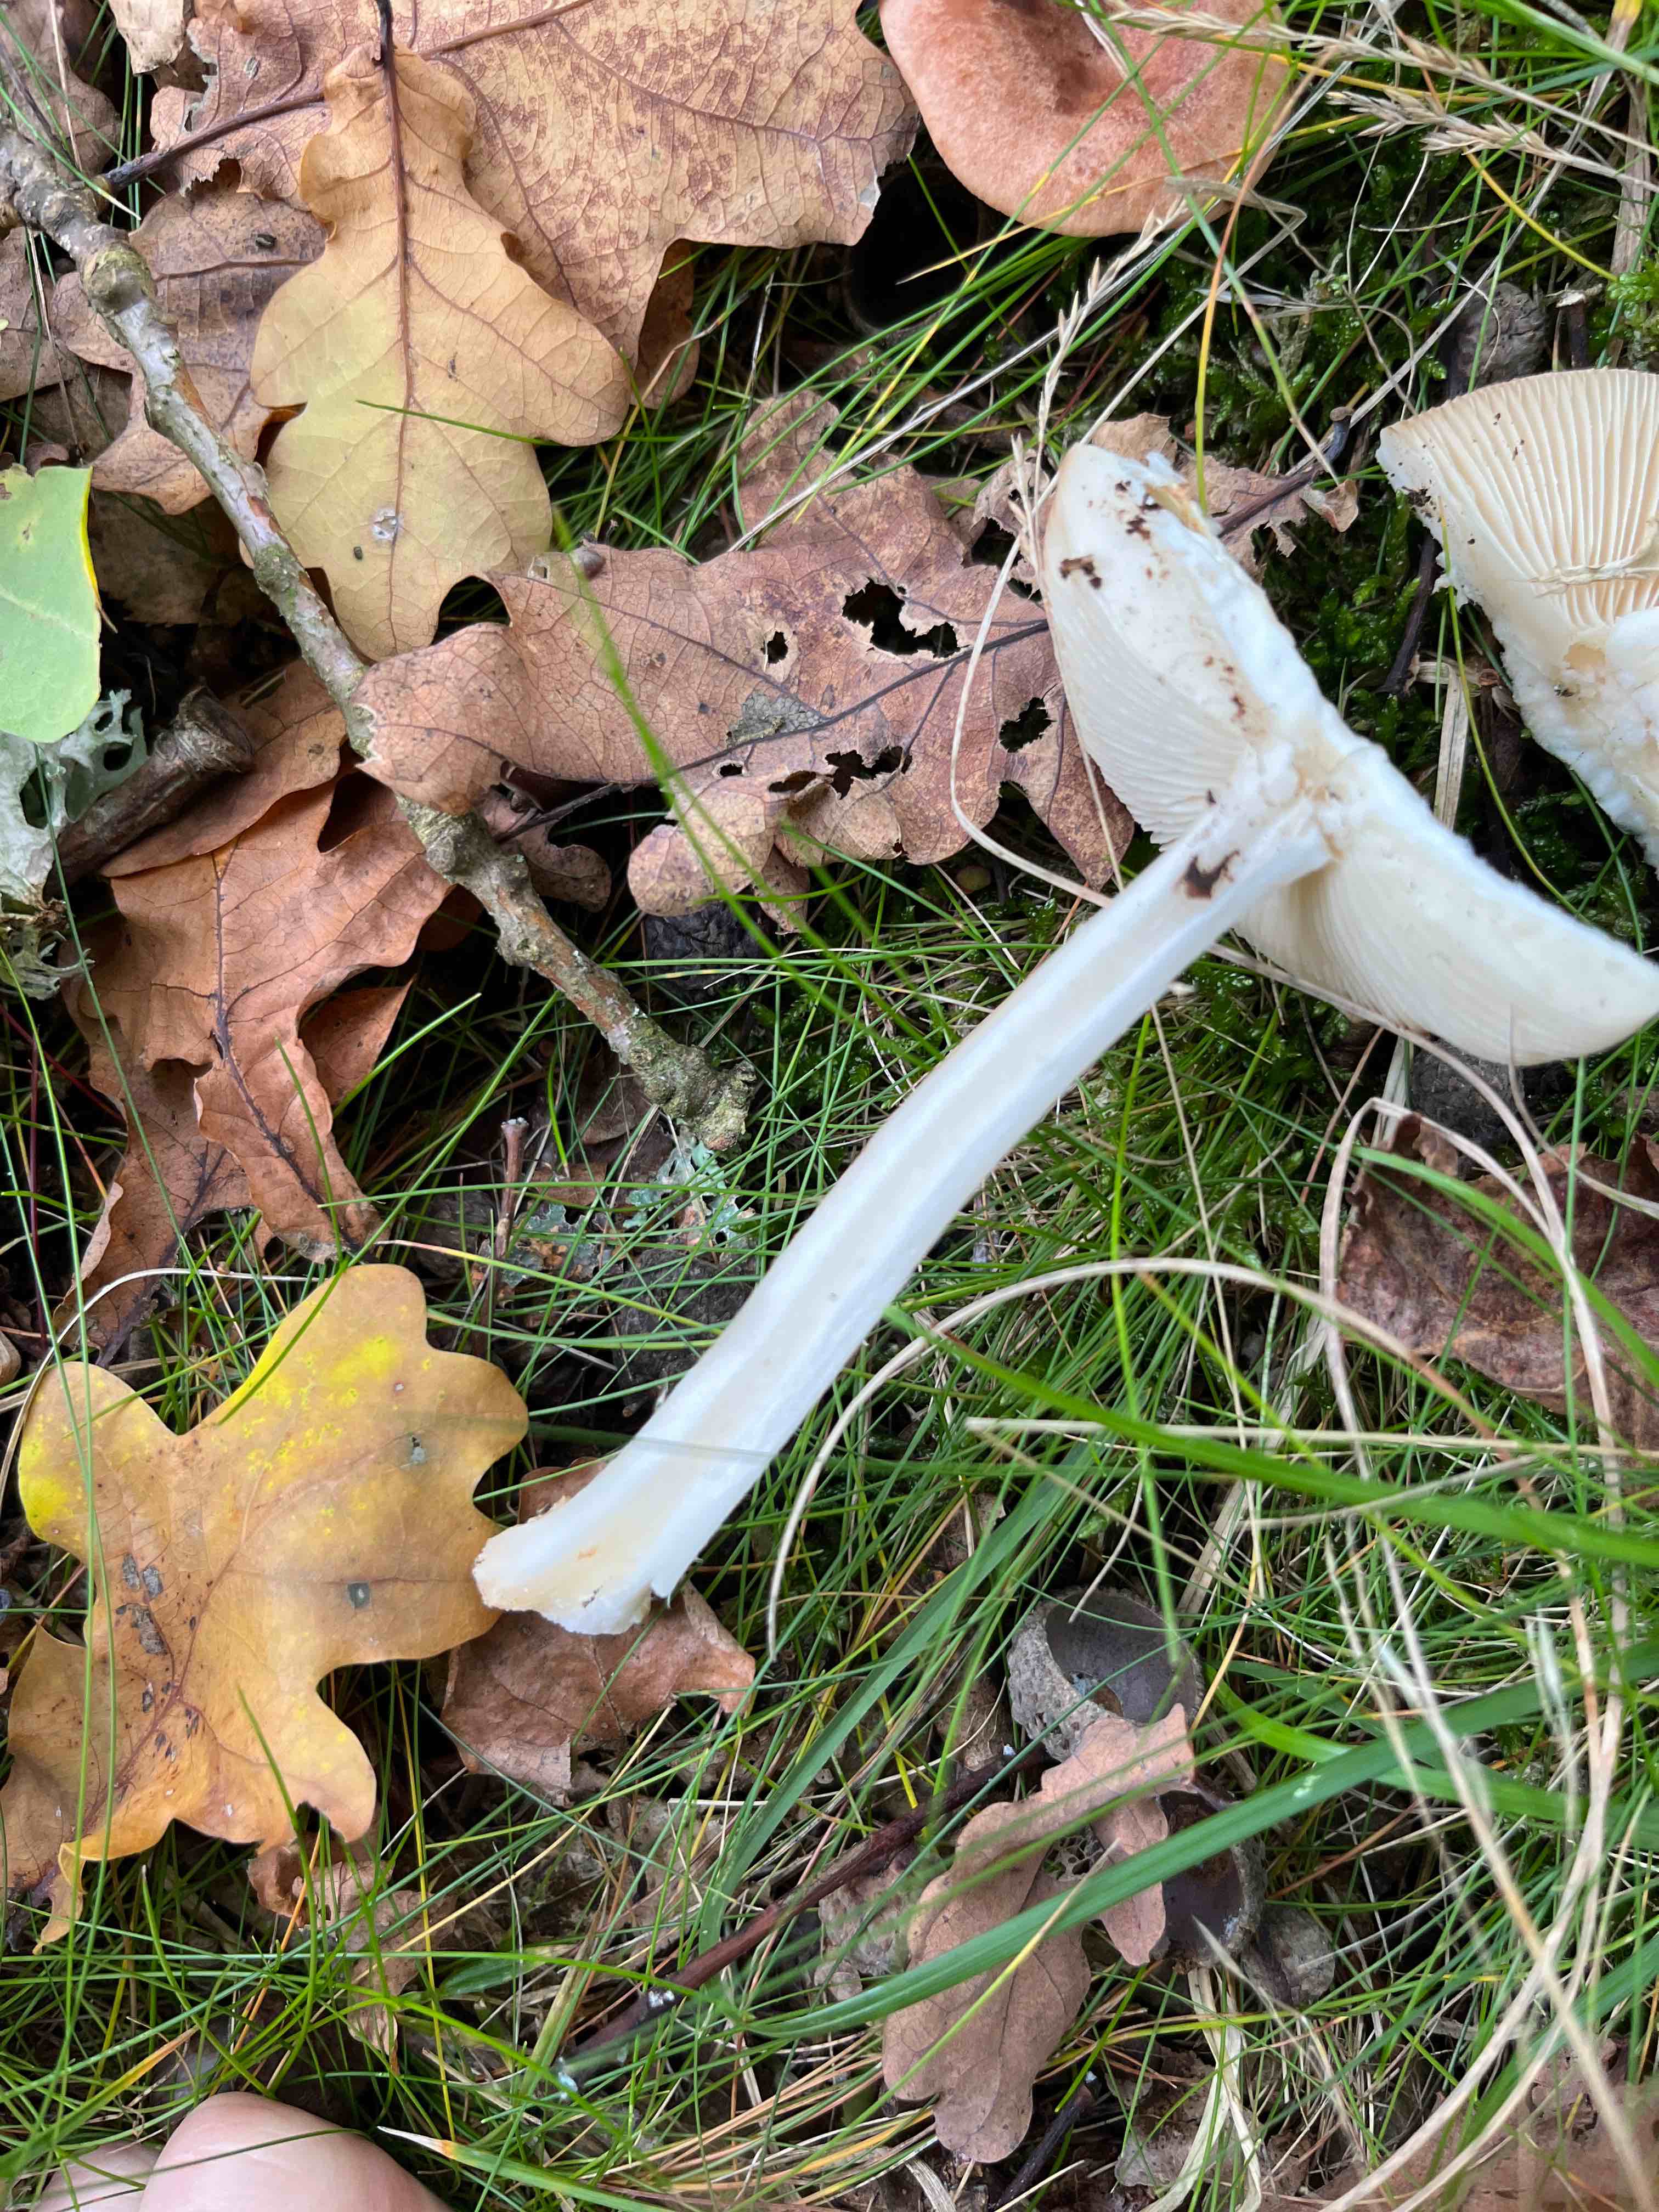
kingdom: Fungi
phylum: Basidiomycota
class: Agaricomycetes
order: Agaricales
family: Amanitaceae
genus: Amanita
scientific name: Amanita rubescens
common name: rødmende fluesvamp
